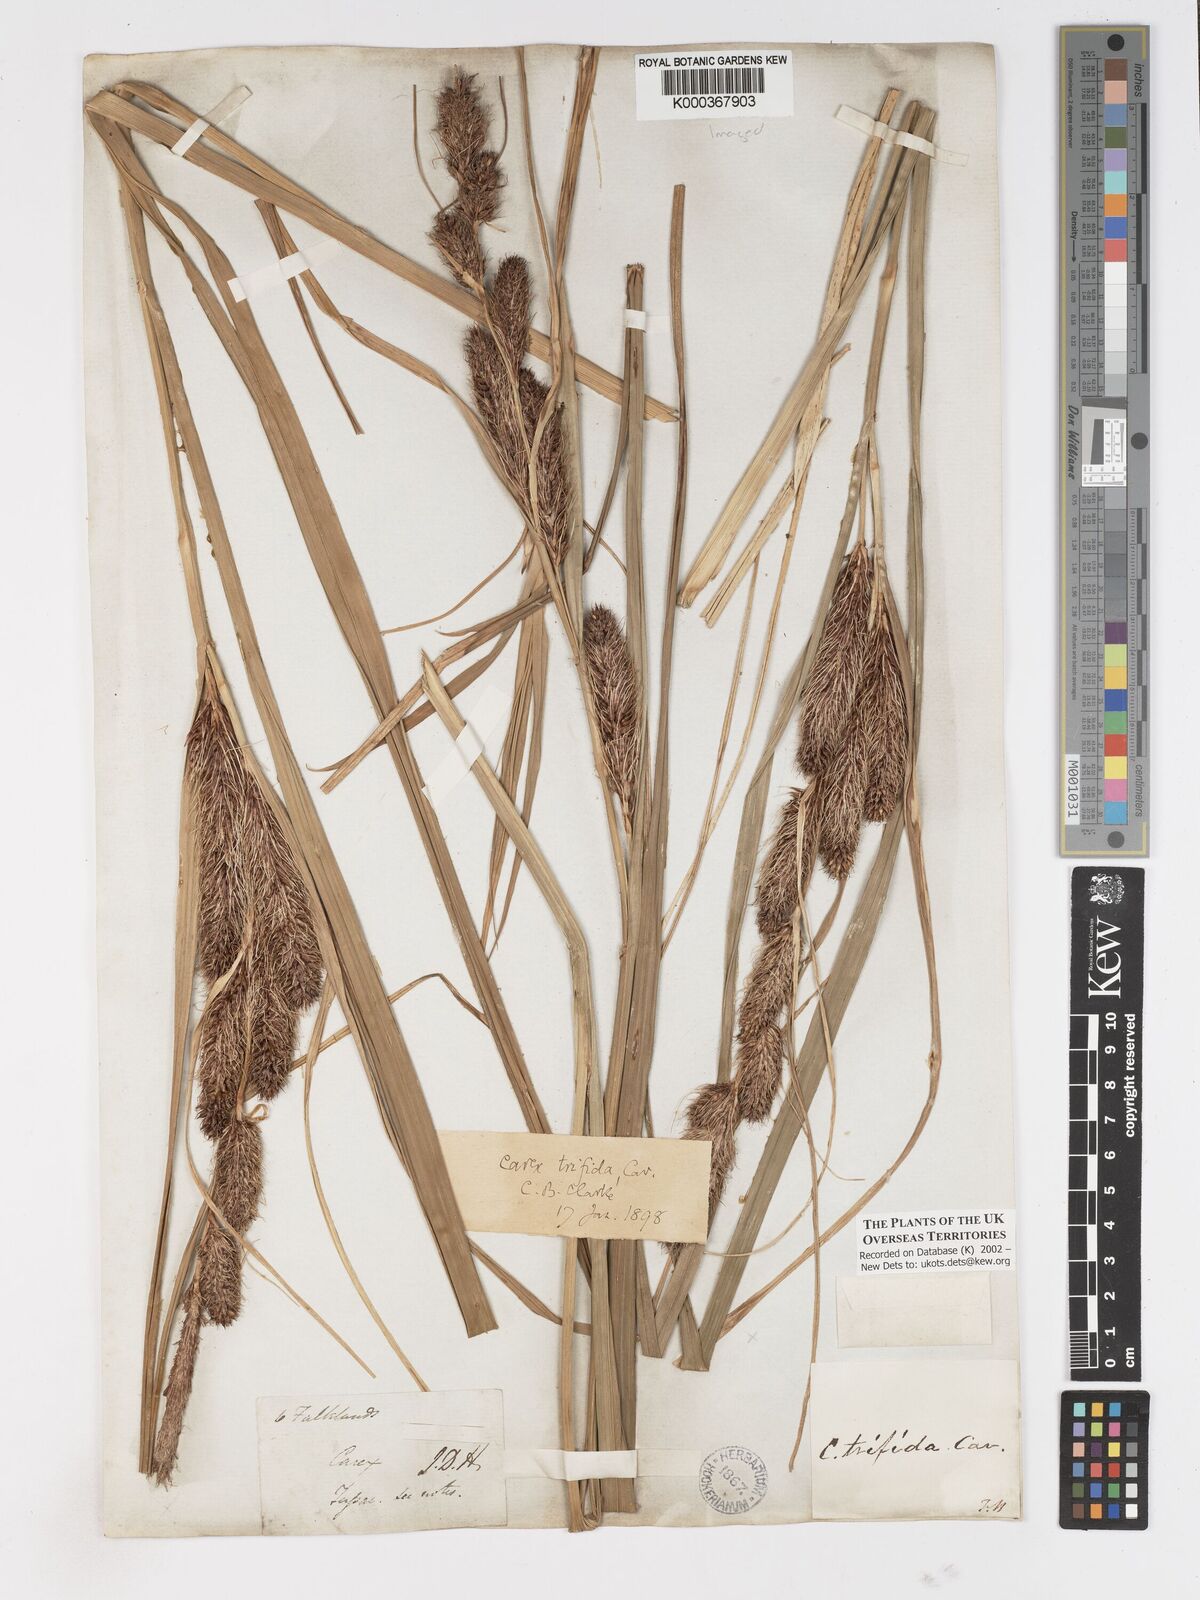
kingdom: Plantae
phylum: Tracheophyta
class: Liliopsida
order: Poales
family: Cyperaceae
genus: Carex
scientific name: Carex trifida
